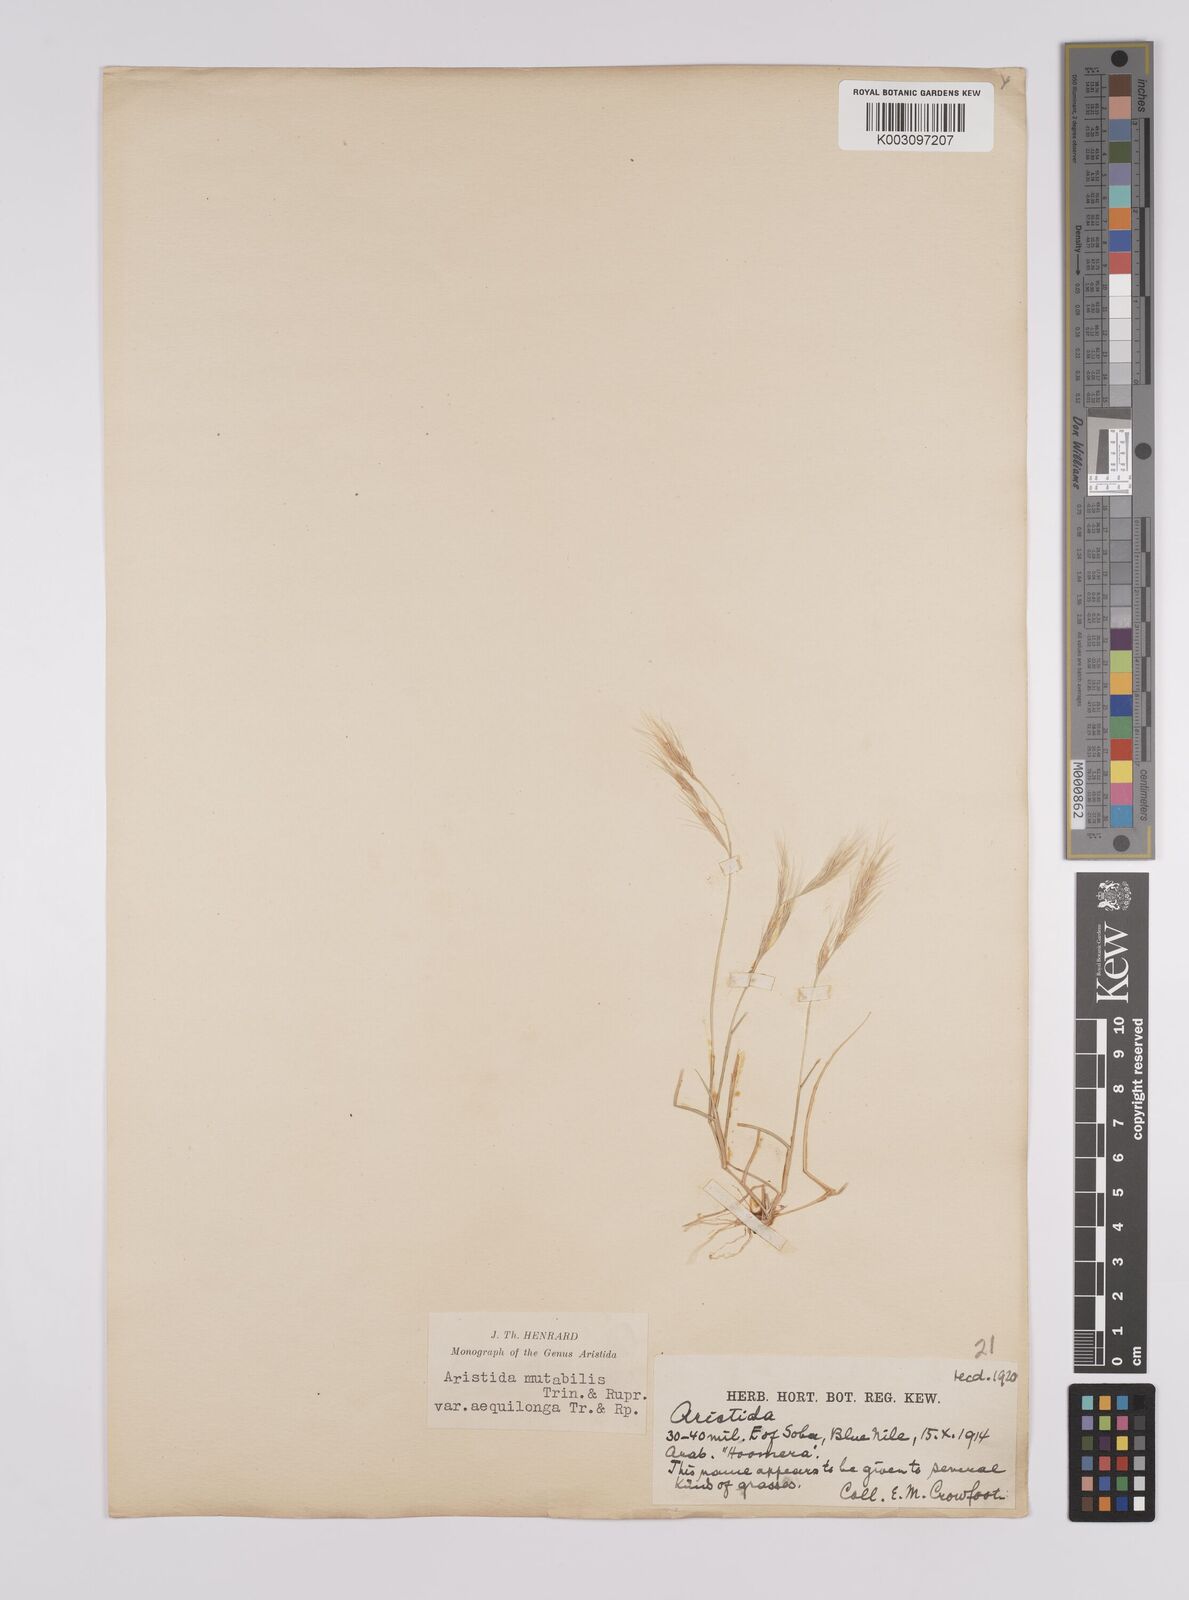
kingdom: Plantae
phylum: Tracheophyta
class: Liliopsida
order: Poales
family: Poaceae
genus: Aristida
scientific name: Aristida mutabilis
